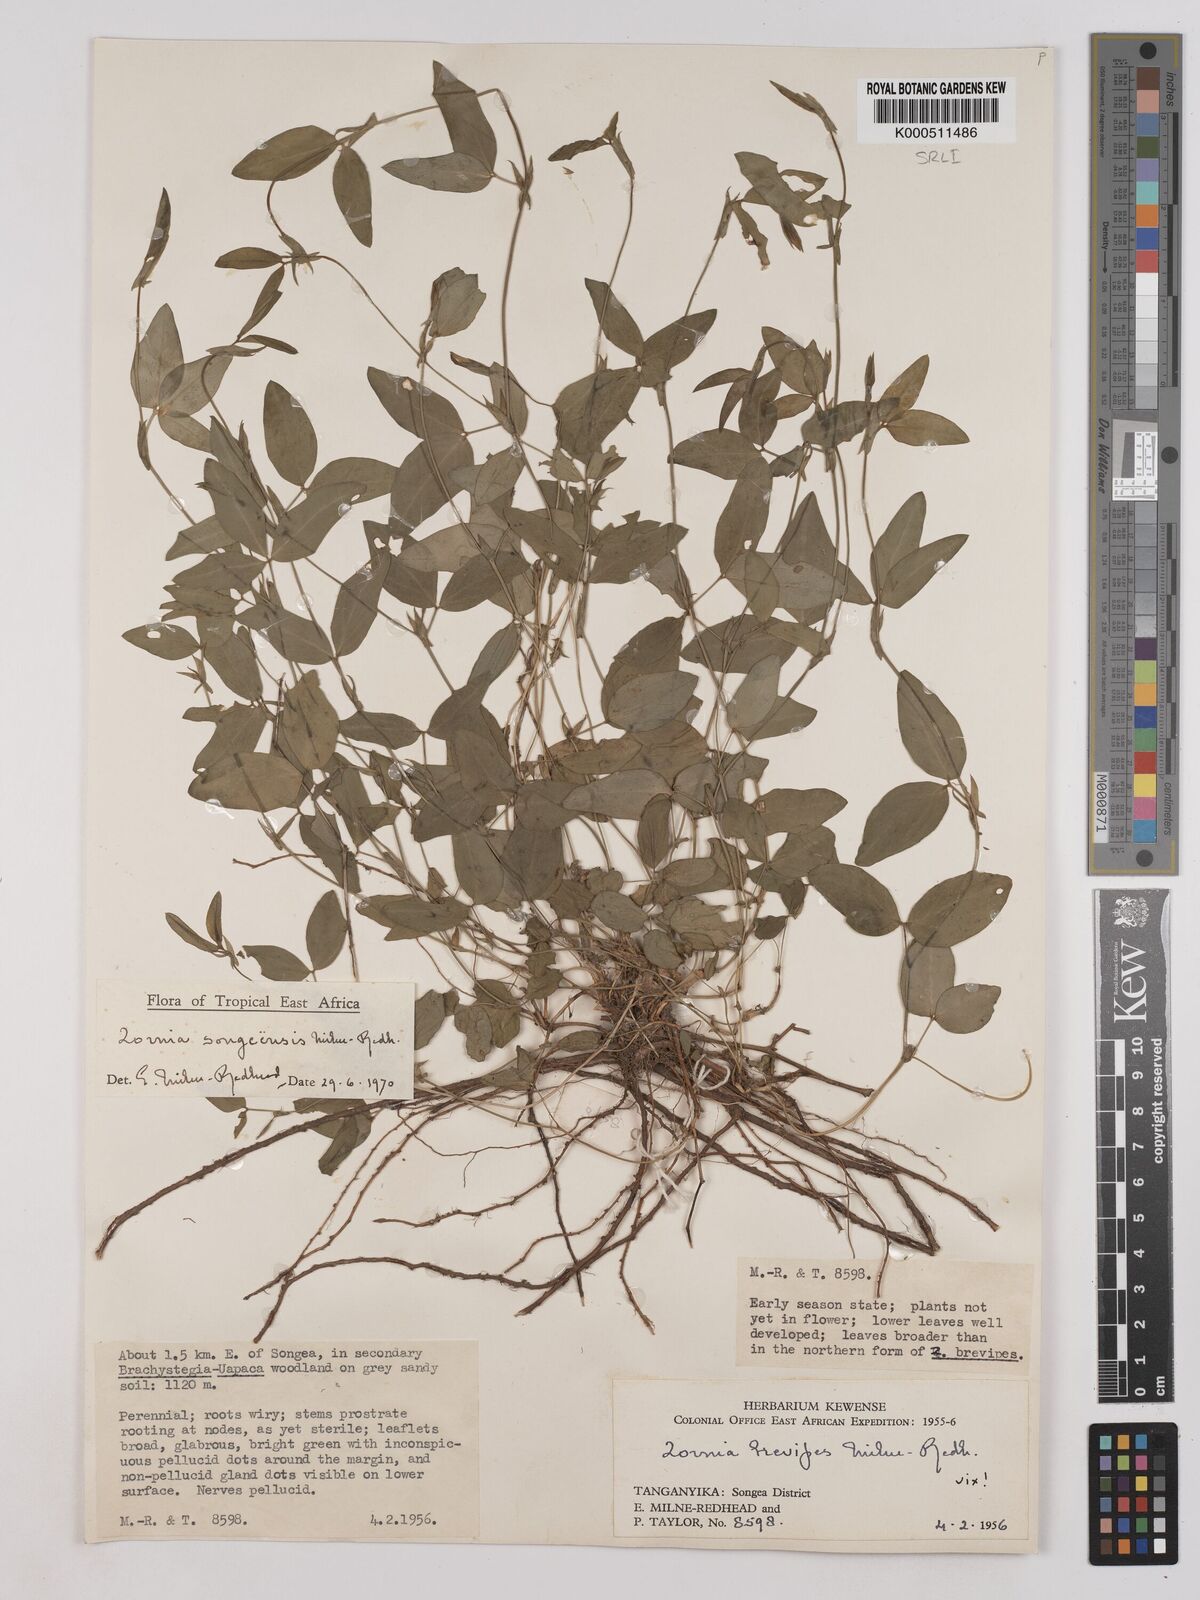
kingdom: Plantae
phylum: Tracheophyta
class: Magnoliopsida
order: Fabales
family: Fabaceae
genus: Zornia
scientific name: Zornia songeensis
